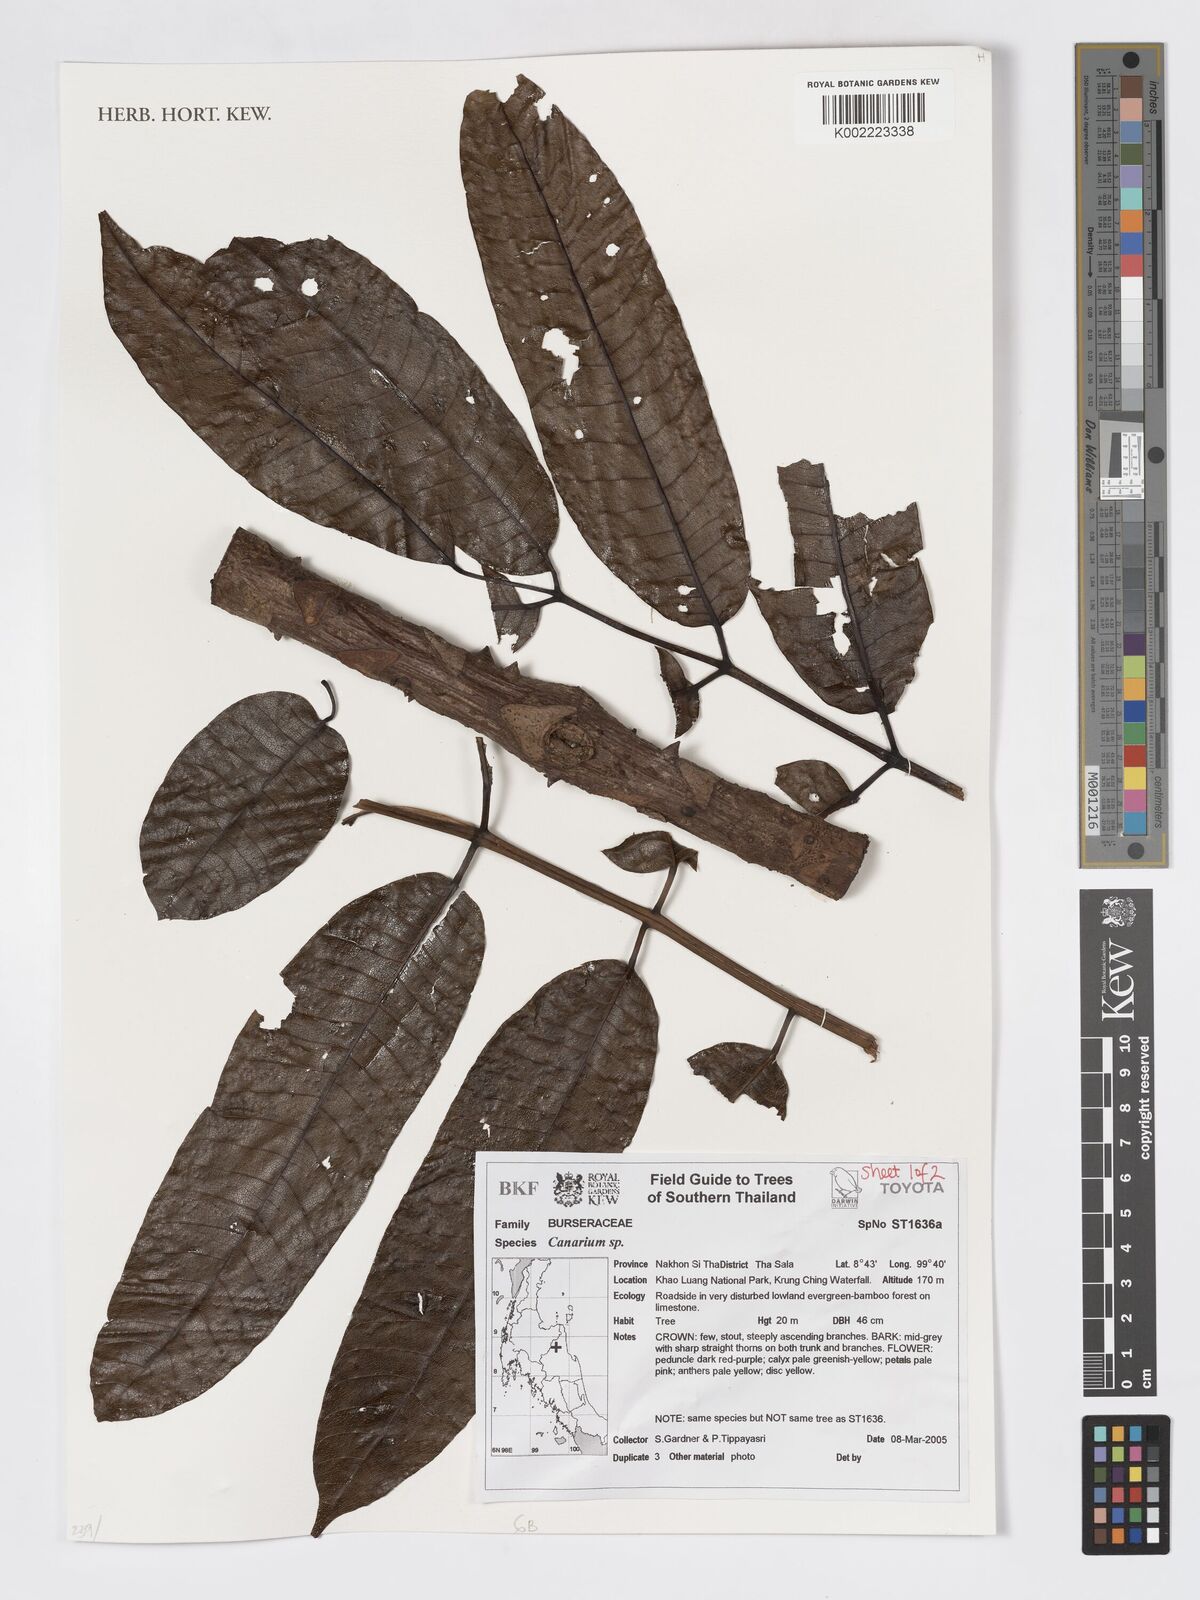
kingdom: Plantae
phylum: Tracheophyta
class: Magnoliopsida
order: Sapindales
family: Burseraceae
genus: Canarium
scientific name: Canarium
